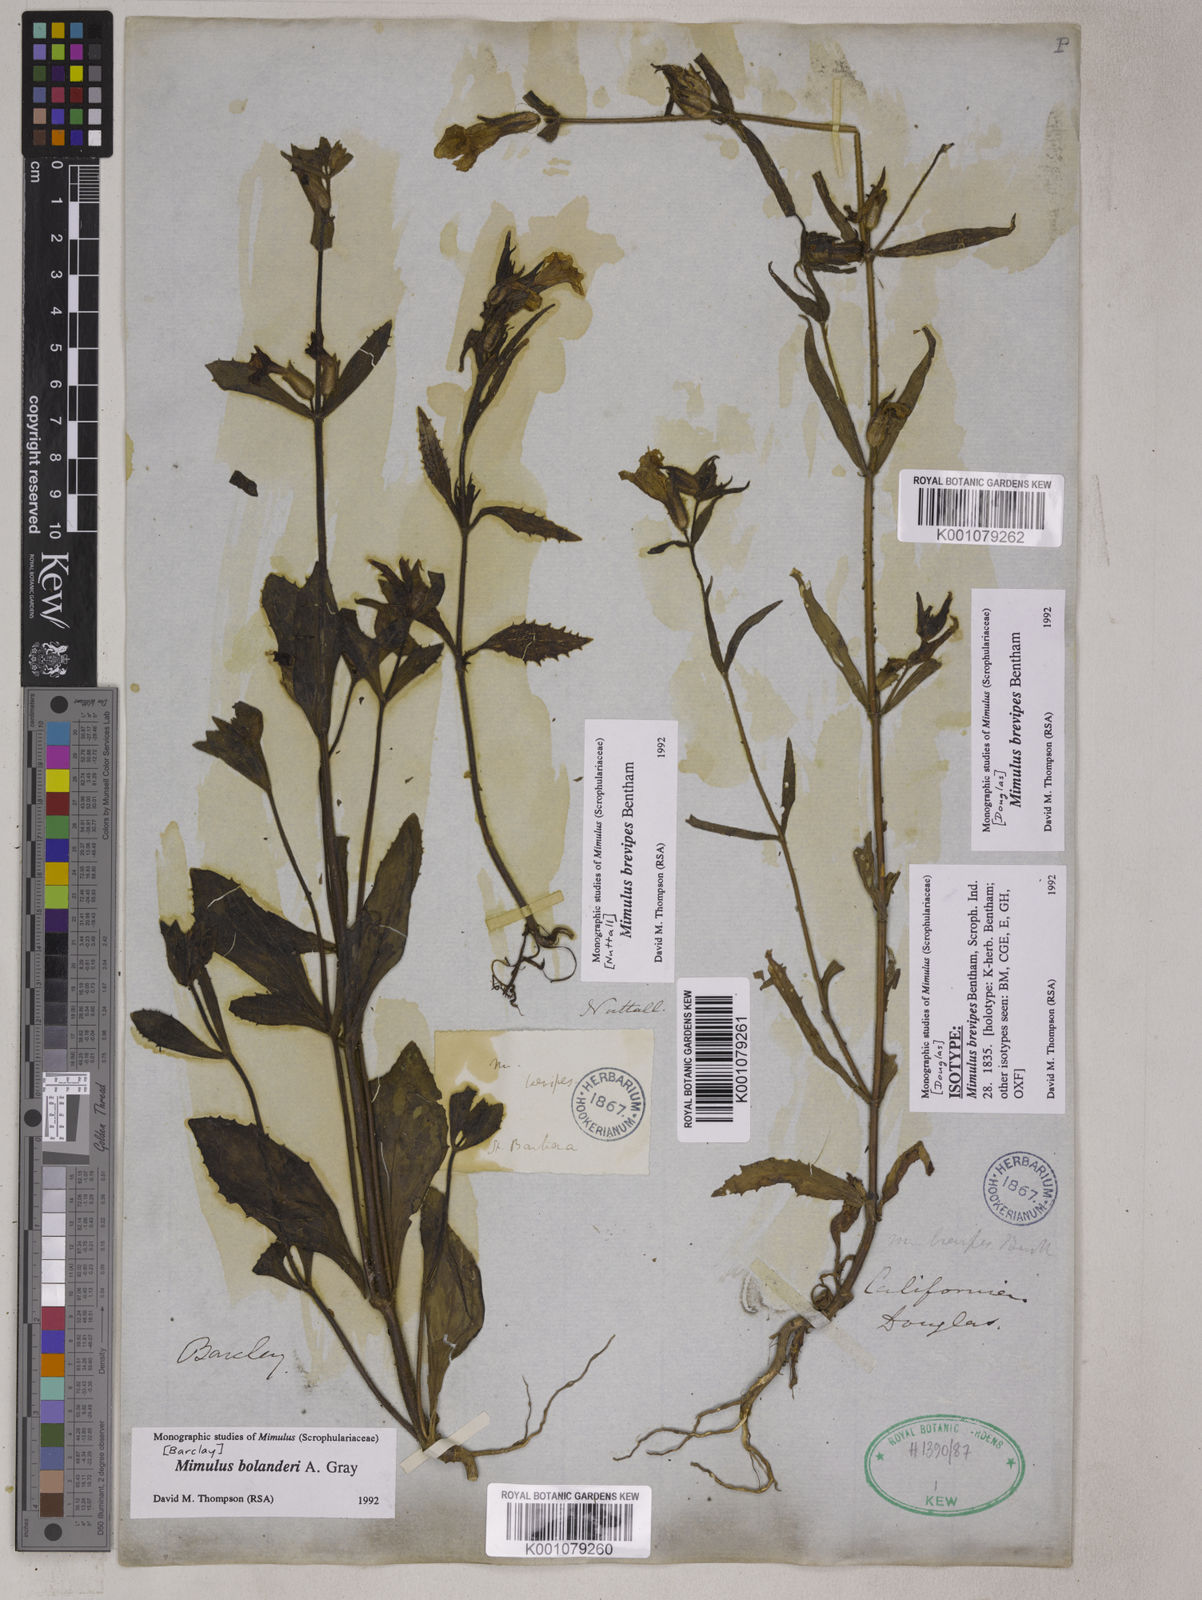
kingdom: Plantae
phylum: Tracheophyta
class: Magnoliopsida
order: Lamiales
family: Phrymaceae
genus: Diplacus
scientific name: Diplacus brevipes
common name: Wide-throat yellow monkey-flower
